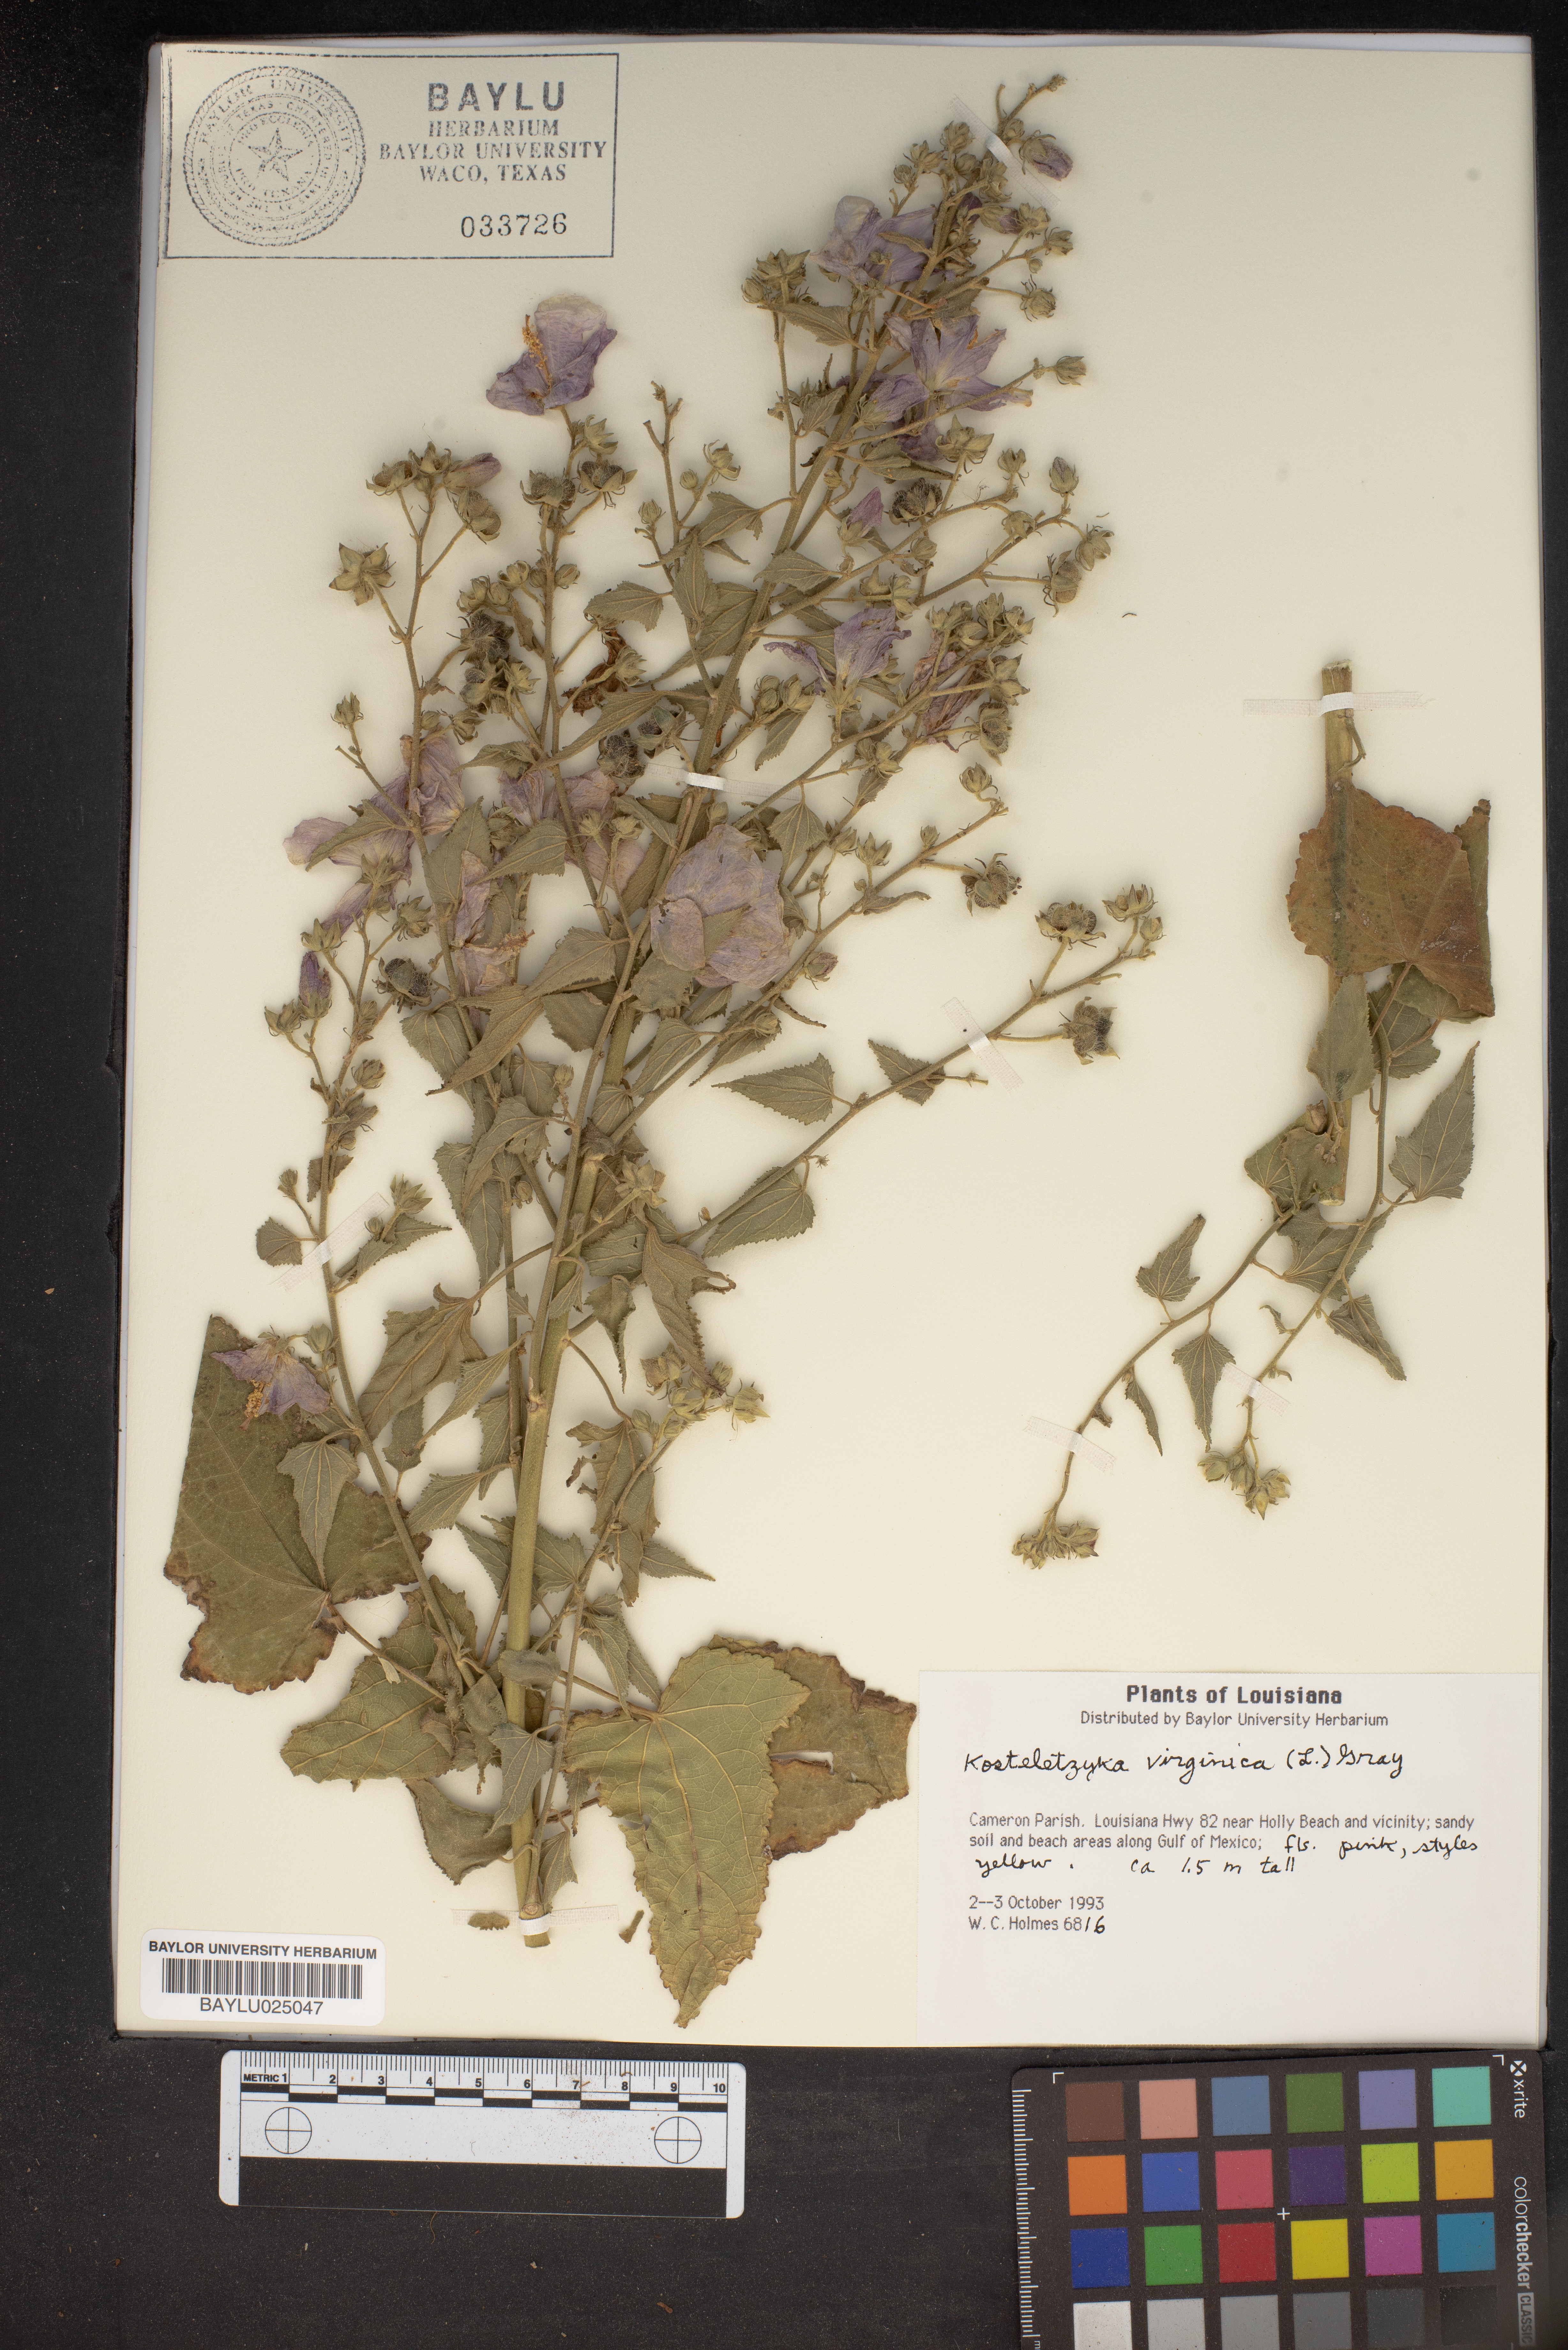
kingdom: Plantae
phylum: Tracheophyta
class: Magnoliopsida
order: Malvales
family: Malvaceae
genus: Kosteletzkya
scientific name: Kosteletzkya pentacarpos
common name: Virginia saltmarsh mallow
